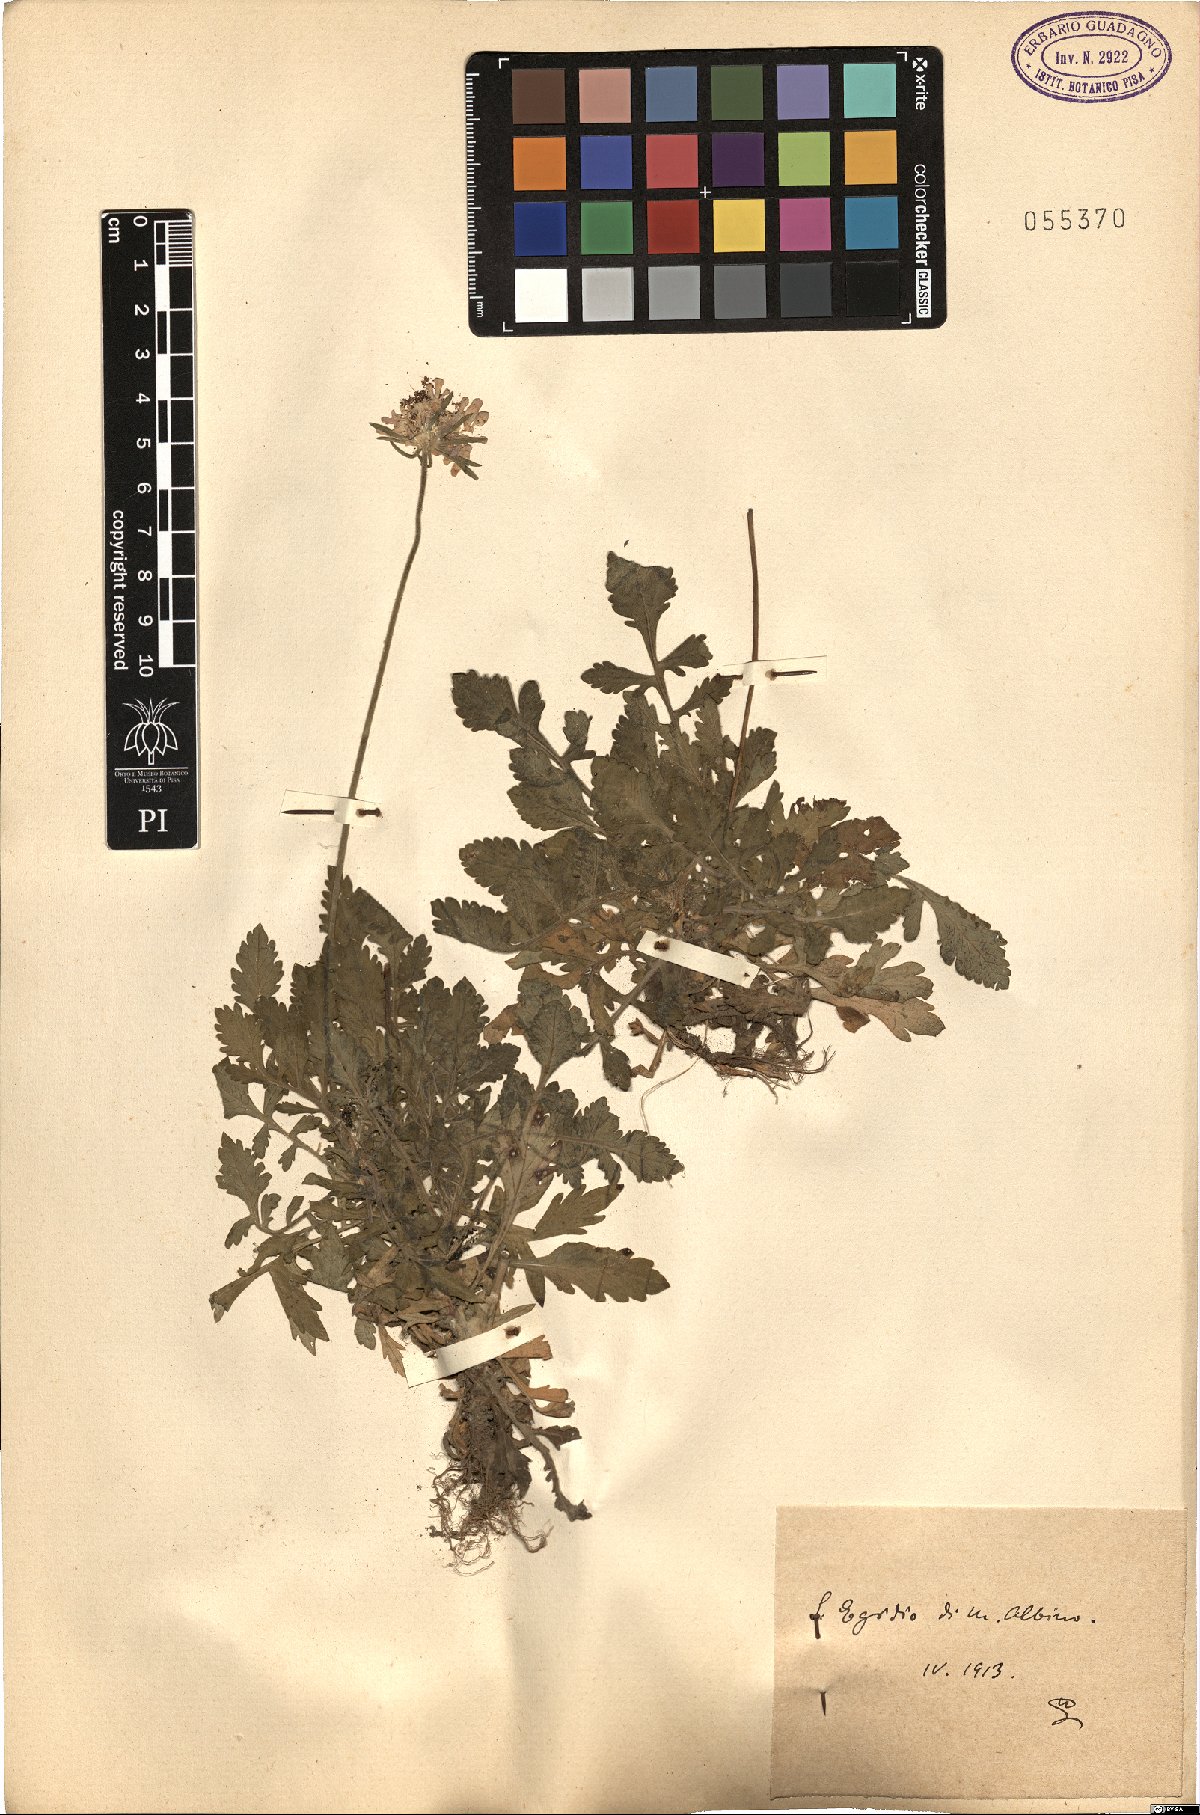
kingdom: Plantae
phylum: Tracheophyta
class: Magnoliopsida
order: Dipsacales
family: Caprifoliaceae
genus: Scabiosa
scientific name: Scabiosa
